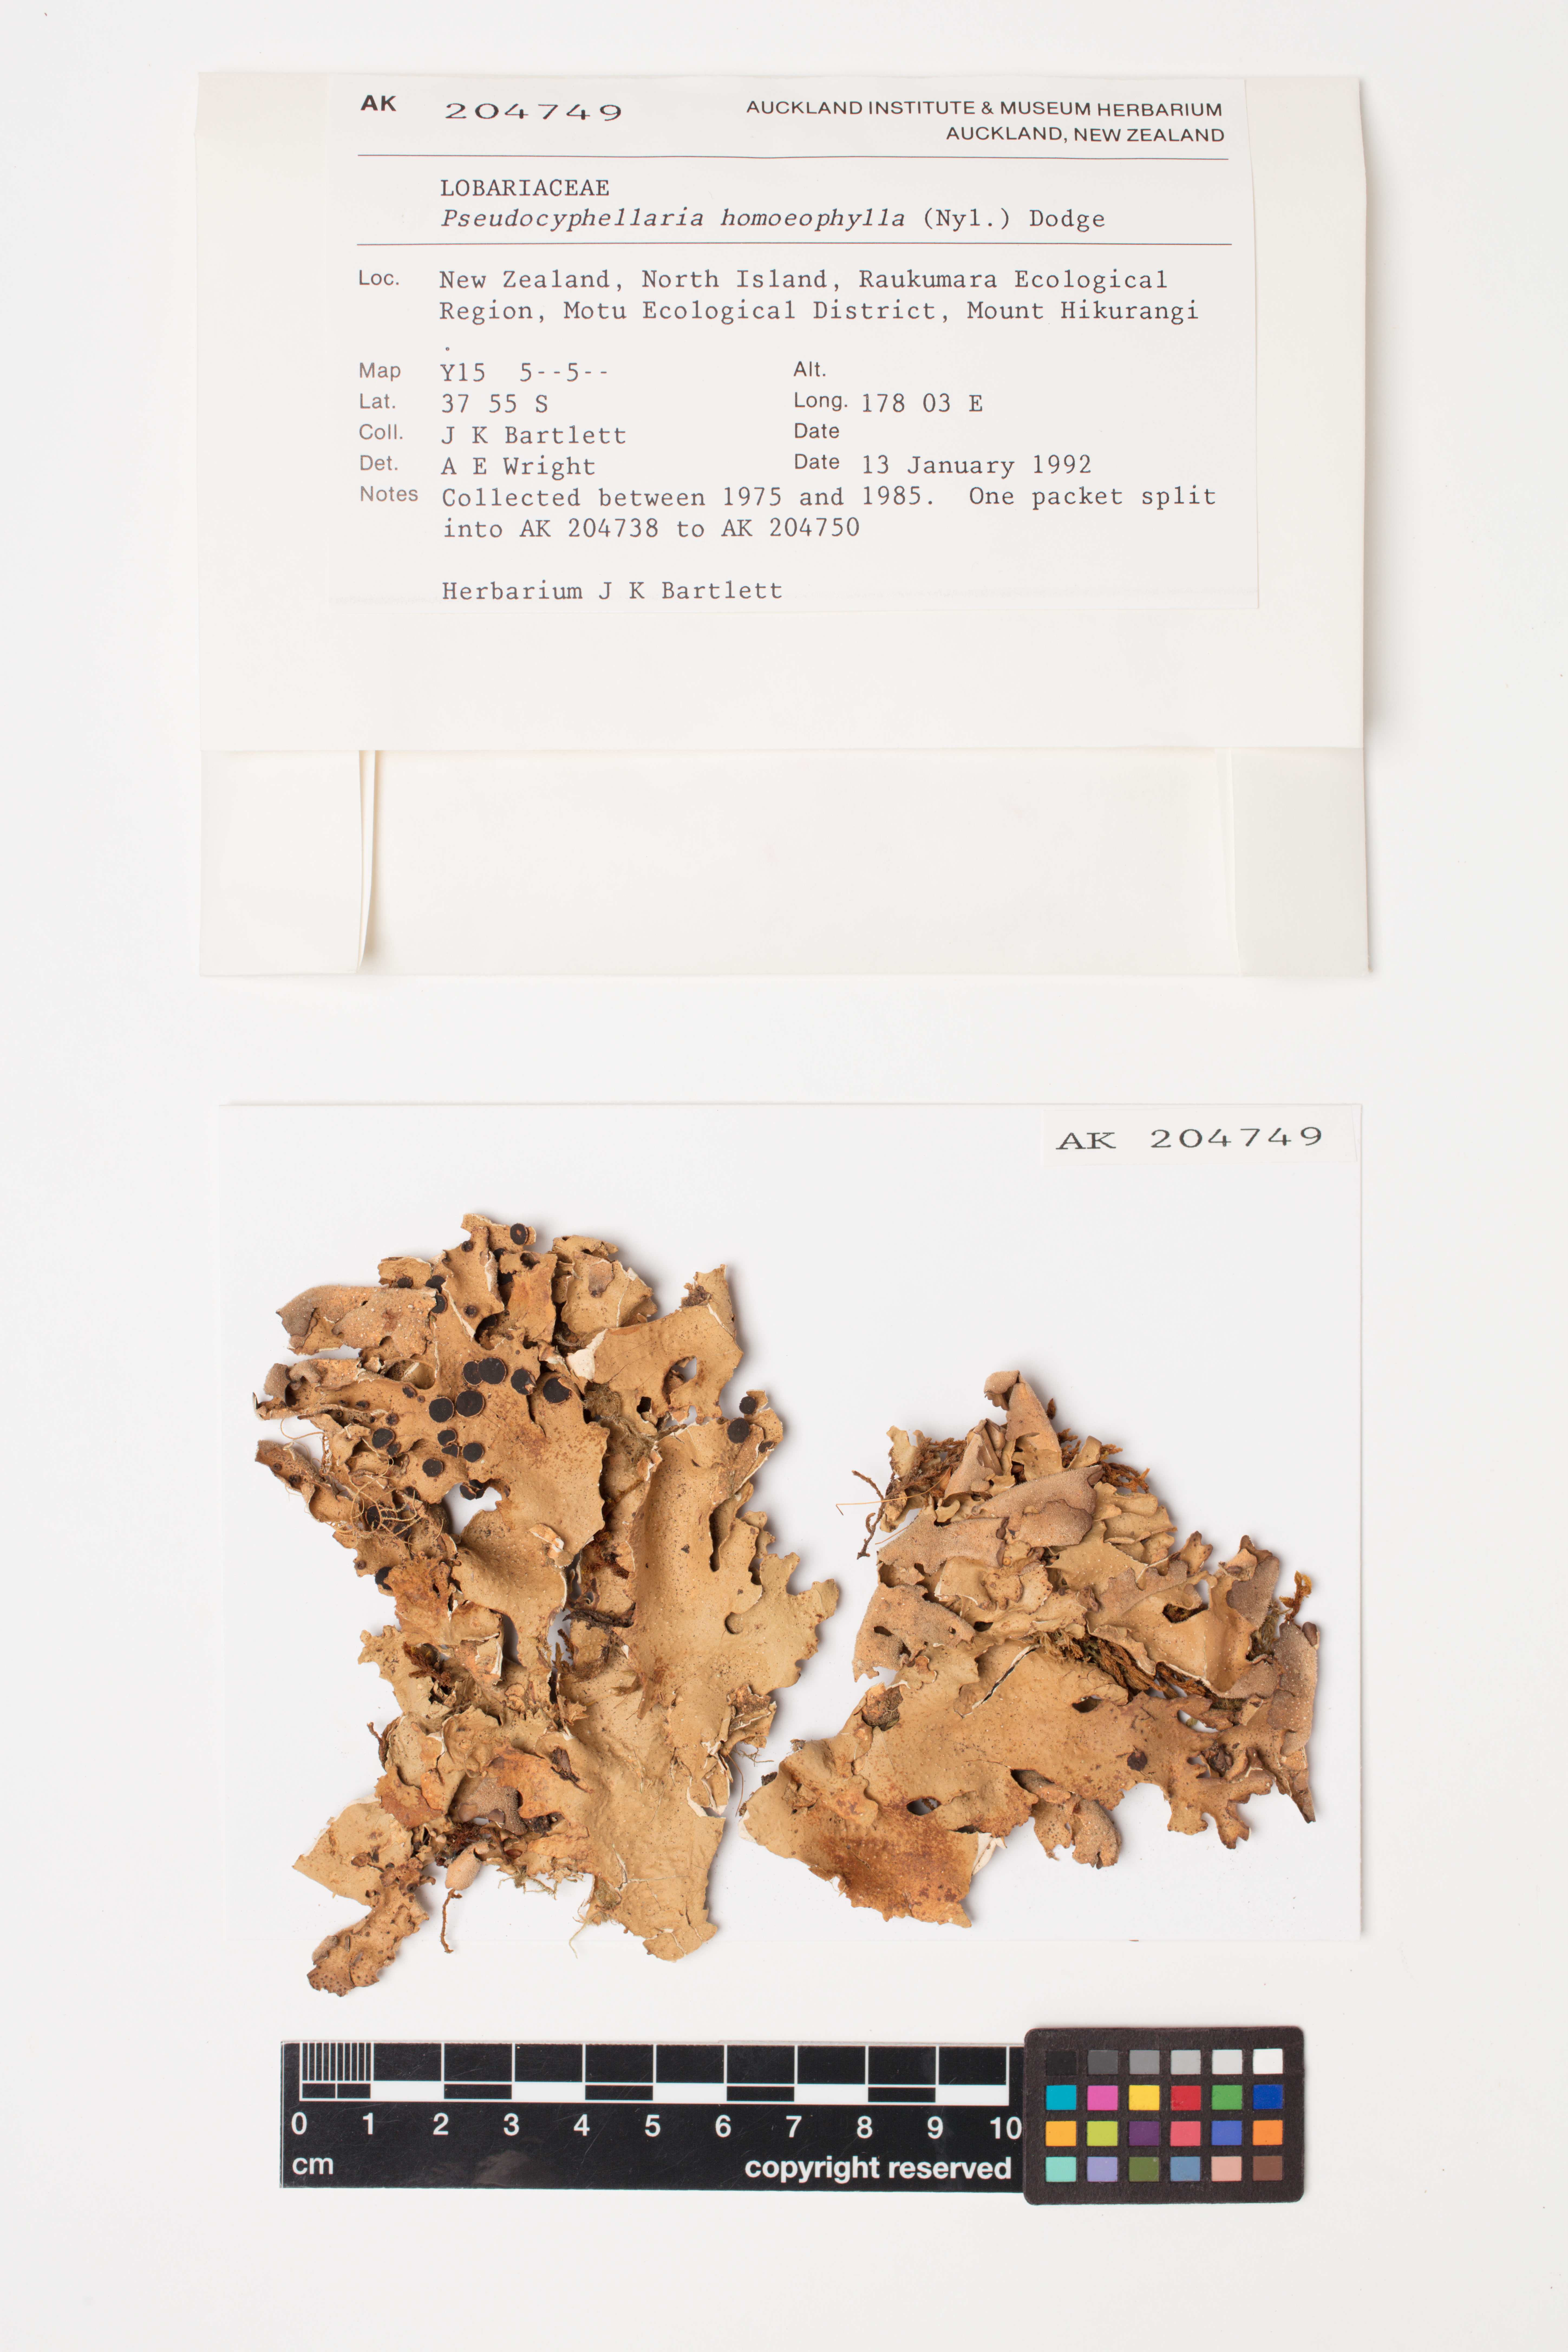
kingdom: Fungi
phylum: Ascomycota
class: Lecanoromycetes
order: Peltigerales
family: Lobariaceae
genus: Pseudocyphellaria
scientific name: Pseudocyphellaria homeophylla
